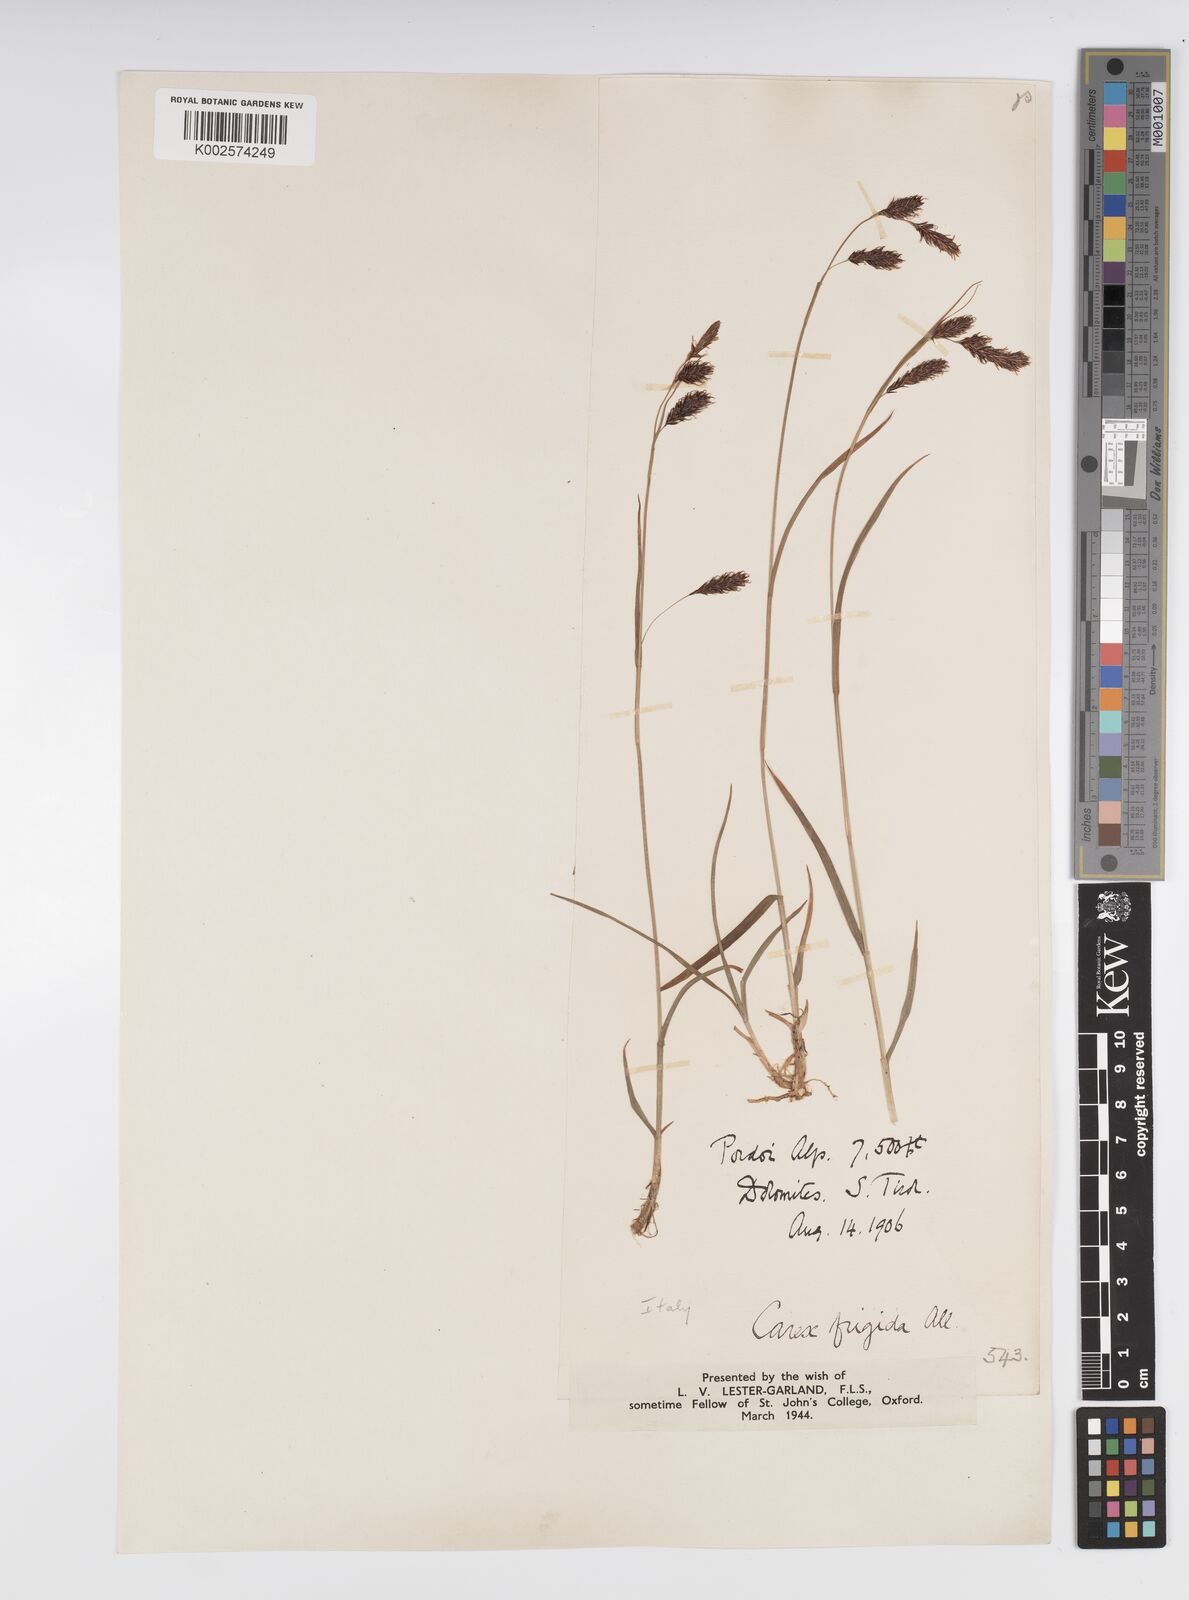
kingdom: Plantae
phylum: Tracheophyta
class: Liliopsida
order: Poales
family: Cyperaceae
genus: Carex
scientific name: Carex frigida
